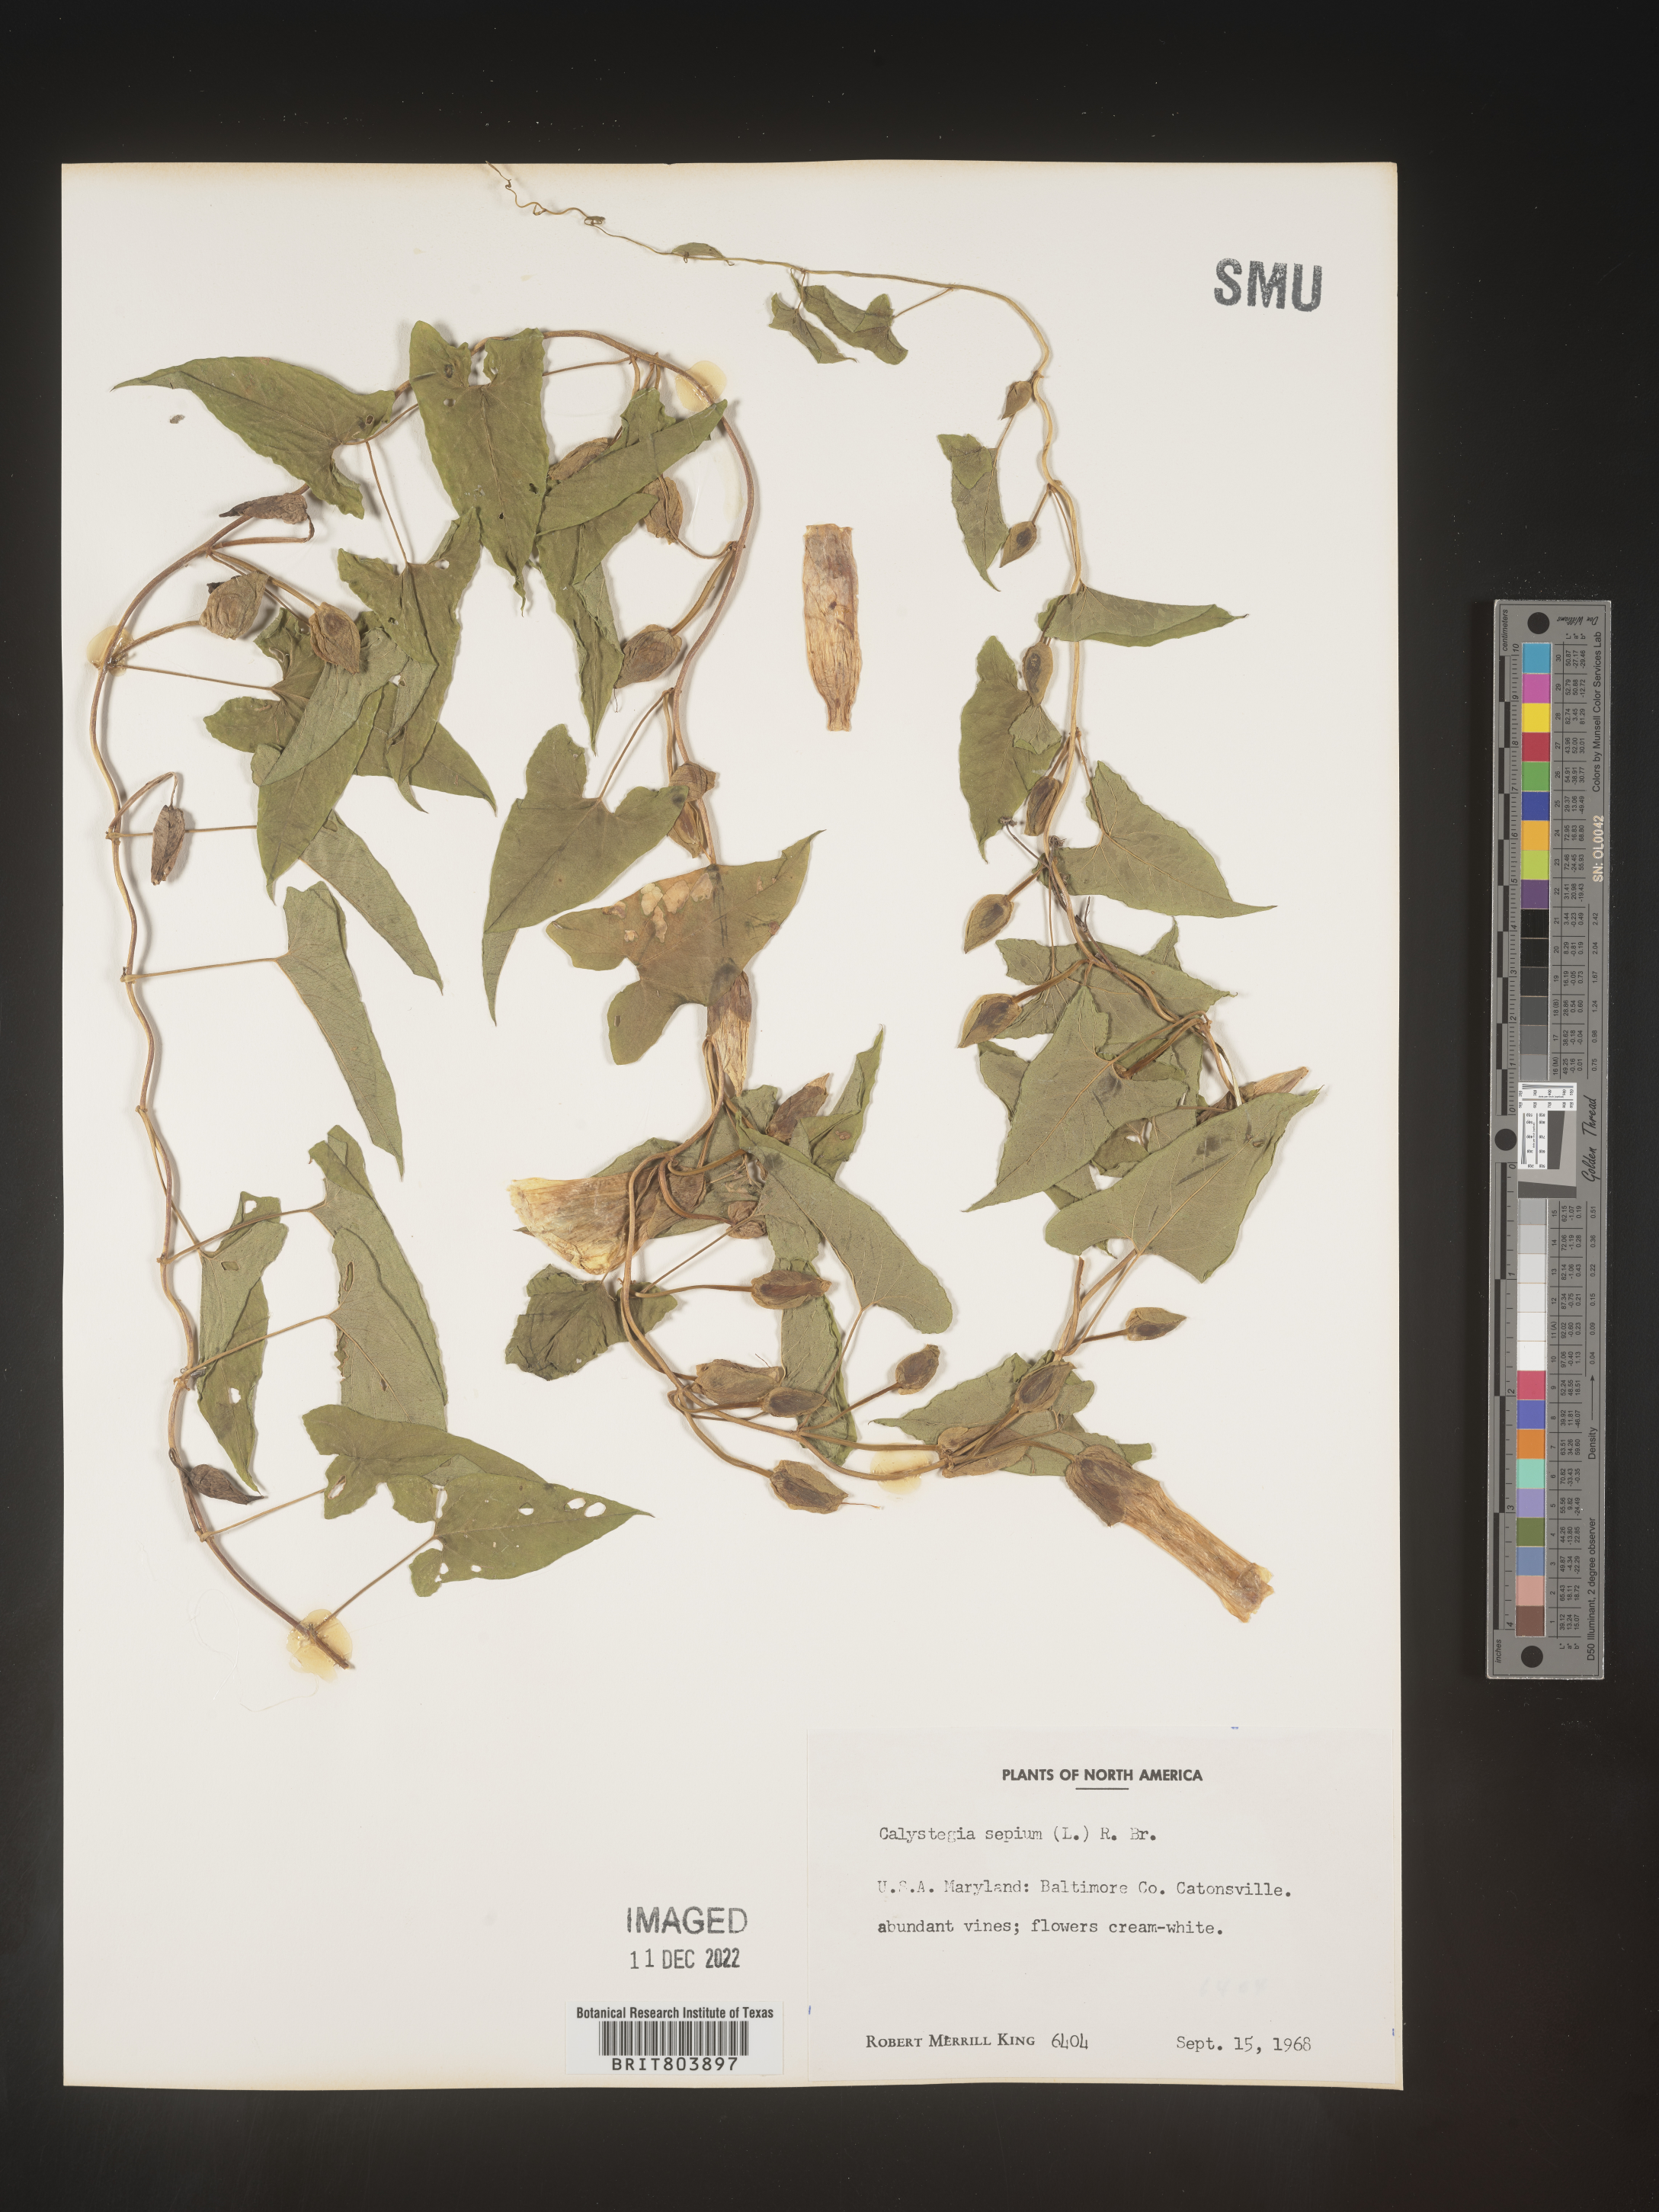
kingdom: Plantae
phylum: Tracheophyta
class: Magnoliopsida
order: Solanales
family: Convolvulaceae
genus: Calystegia
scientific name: Calystegia sepium
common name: Hedge bindweed
